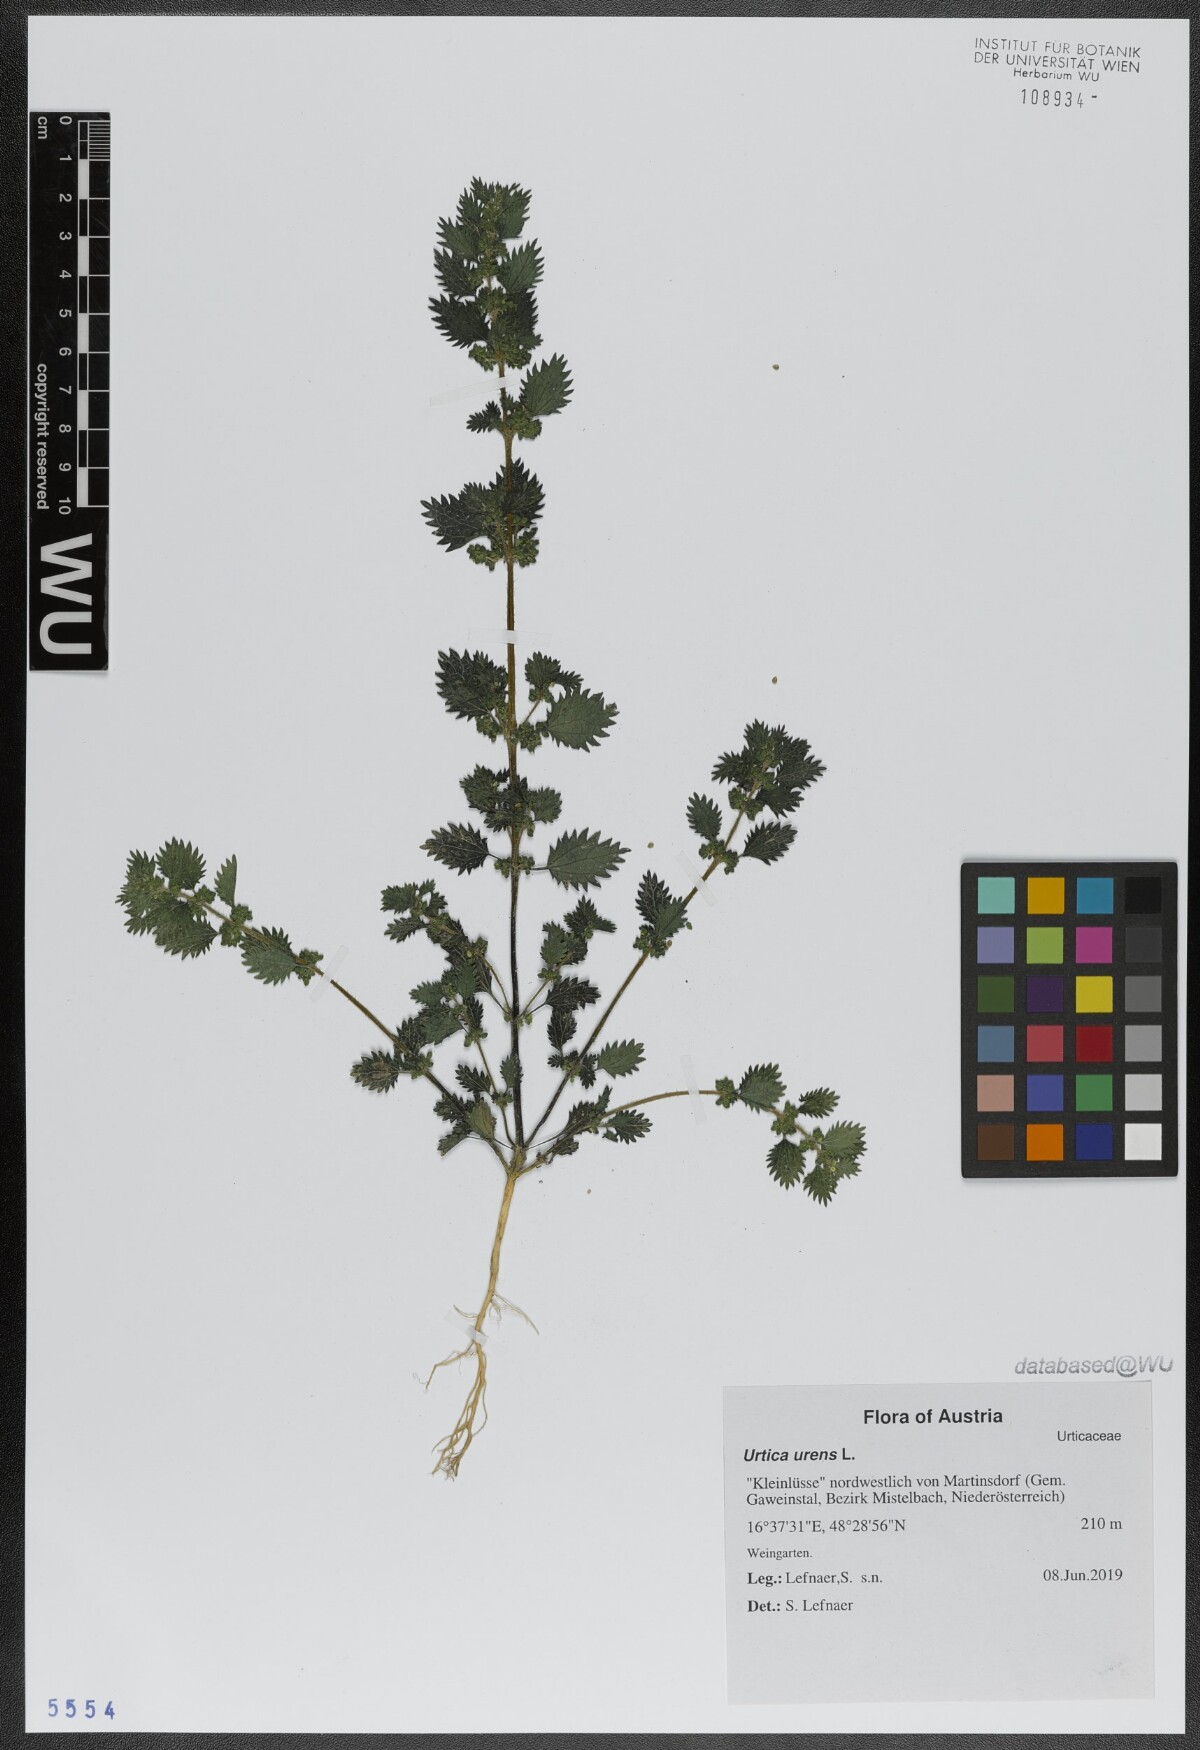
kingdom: Plantae
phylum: Tracheophyta
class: Magnoliopsida
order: Rosales
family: Urticaceae
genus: Urtica
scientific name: Urtica urens
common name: Dwarf nettle
